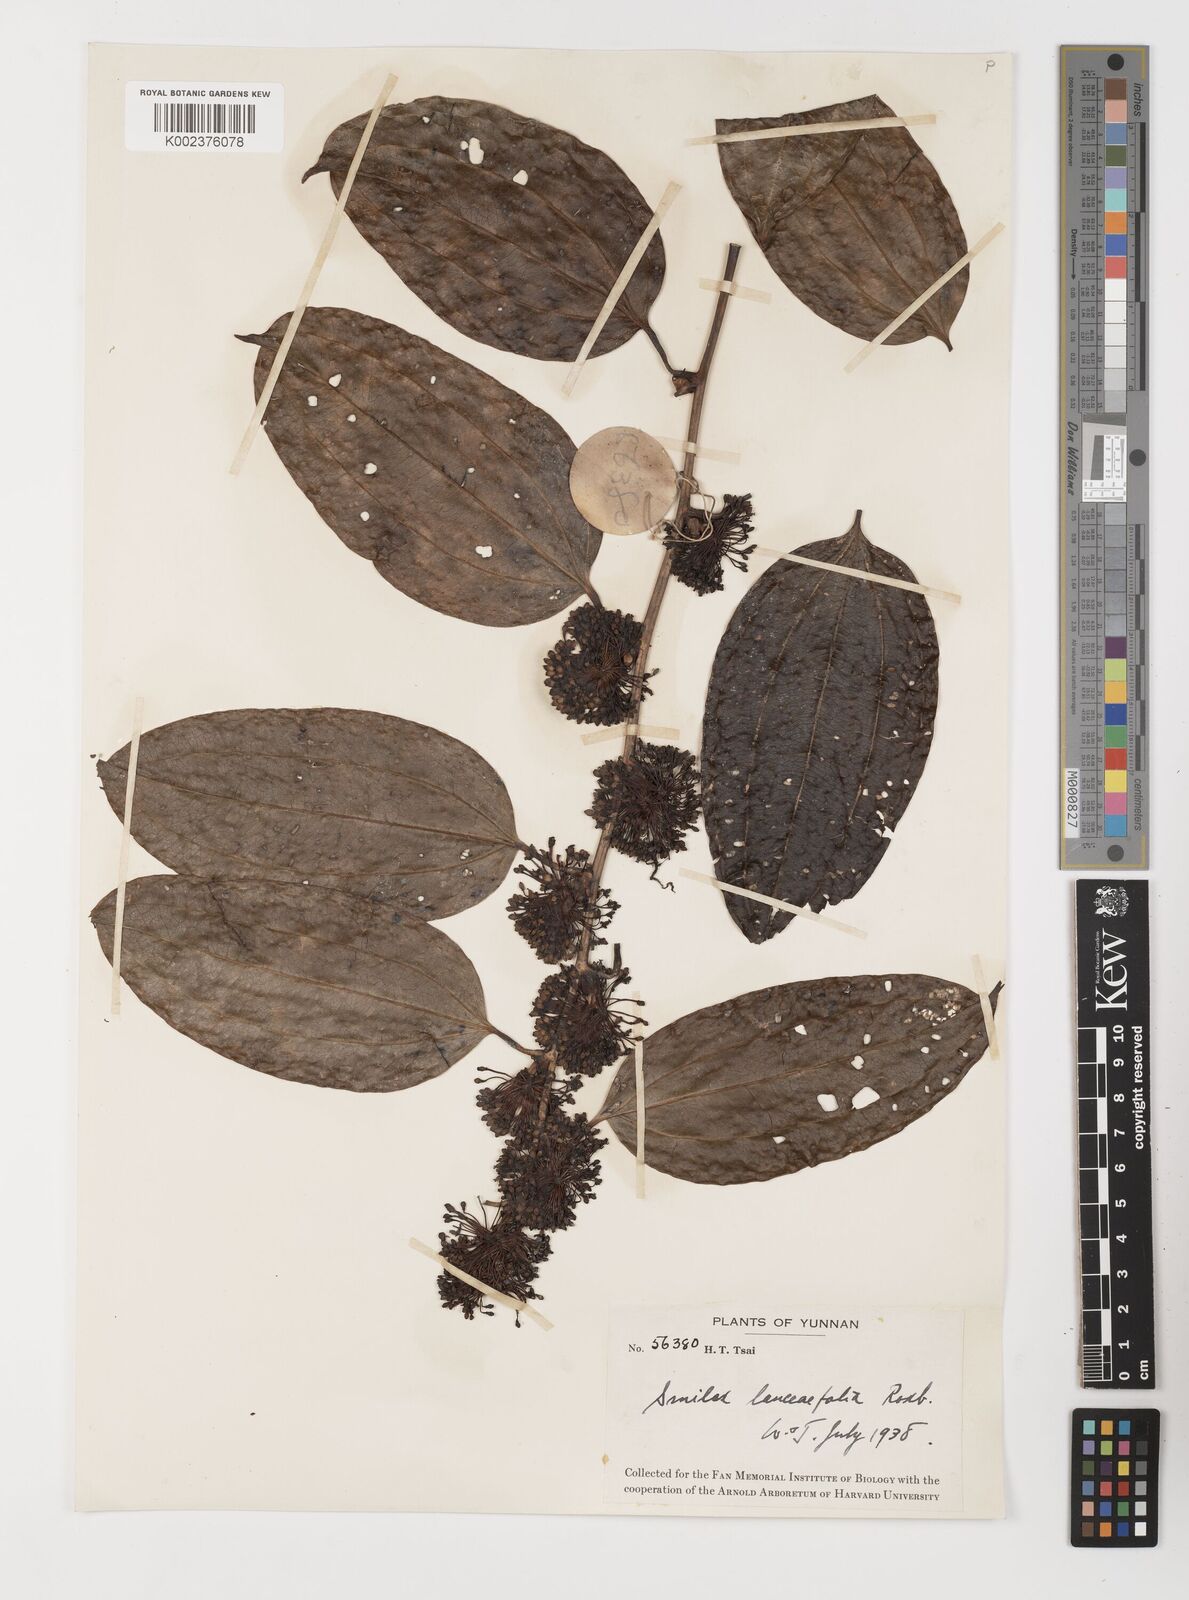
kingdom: Plantae
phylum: Tracheophyta
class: Liliopsida
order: Liliales
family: Smilacaceae
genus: Smilax
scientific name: Smilax lanceifolia
